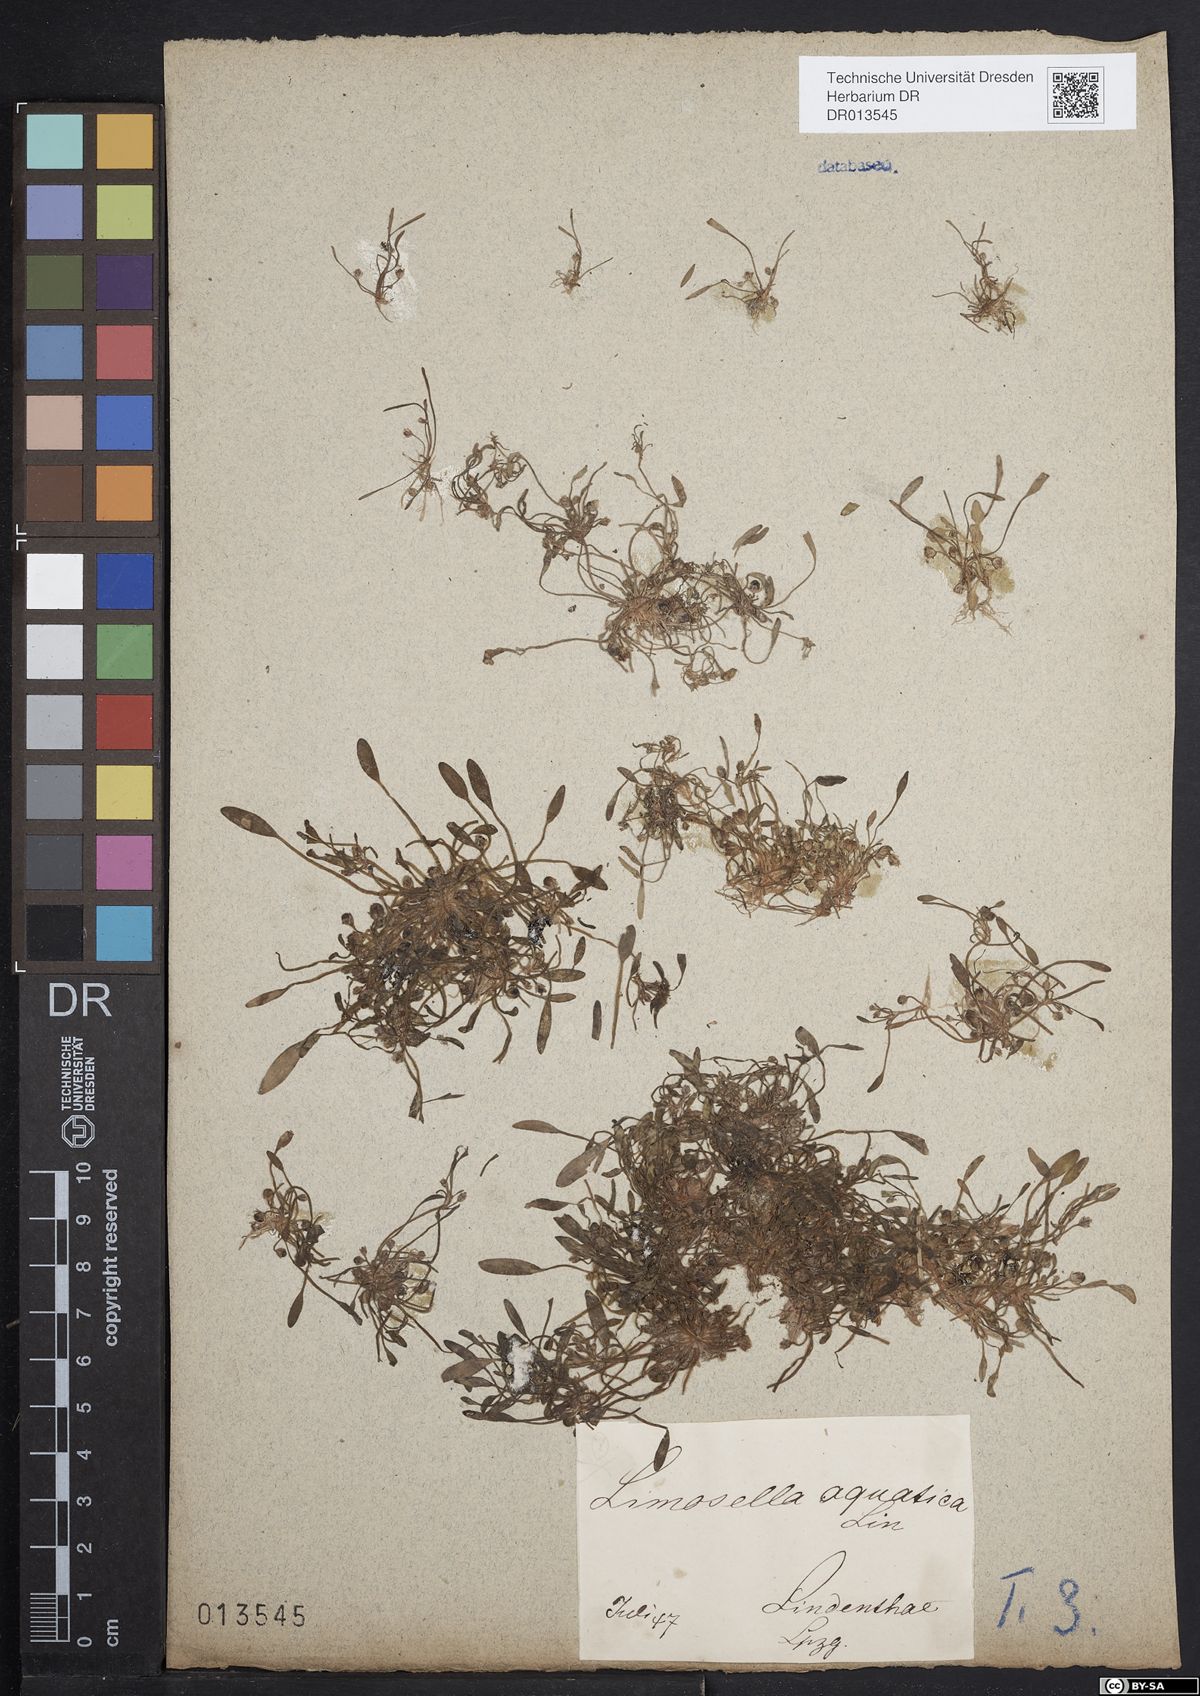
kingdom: Plantae
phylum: Tracheophyta
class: Magnoliopsida
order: Lamiales
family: Scrophulariaceae
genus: Limosella
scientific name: Limosella aquatica
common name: Mudwort
